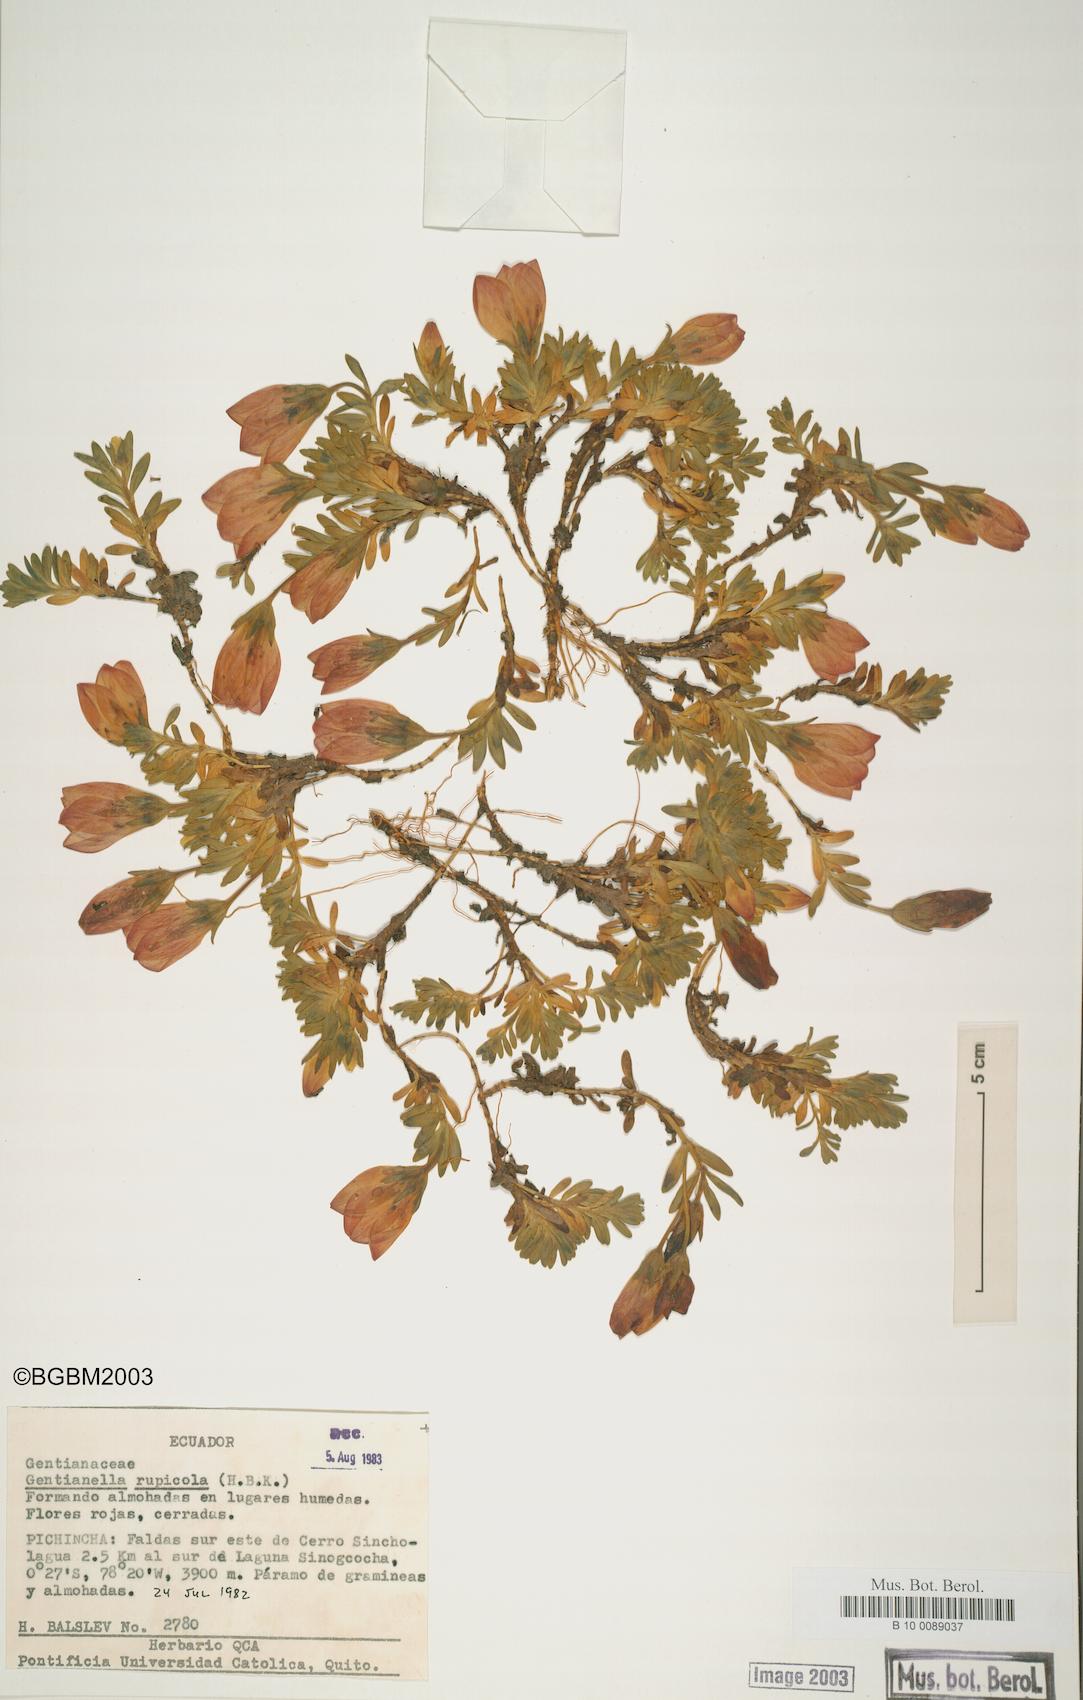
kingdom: Plantae
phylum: Tracheophyta
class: Magnoliopsida
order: Gentianales
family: Gentianaceae
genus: Gentianella
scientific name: Gentianella rupicola
